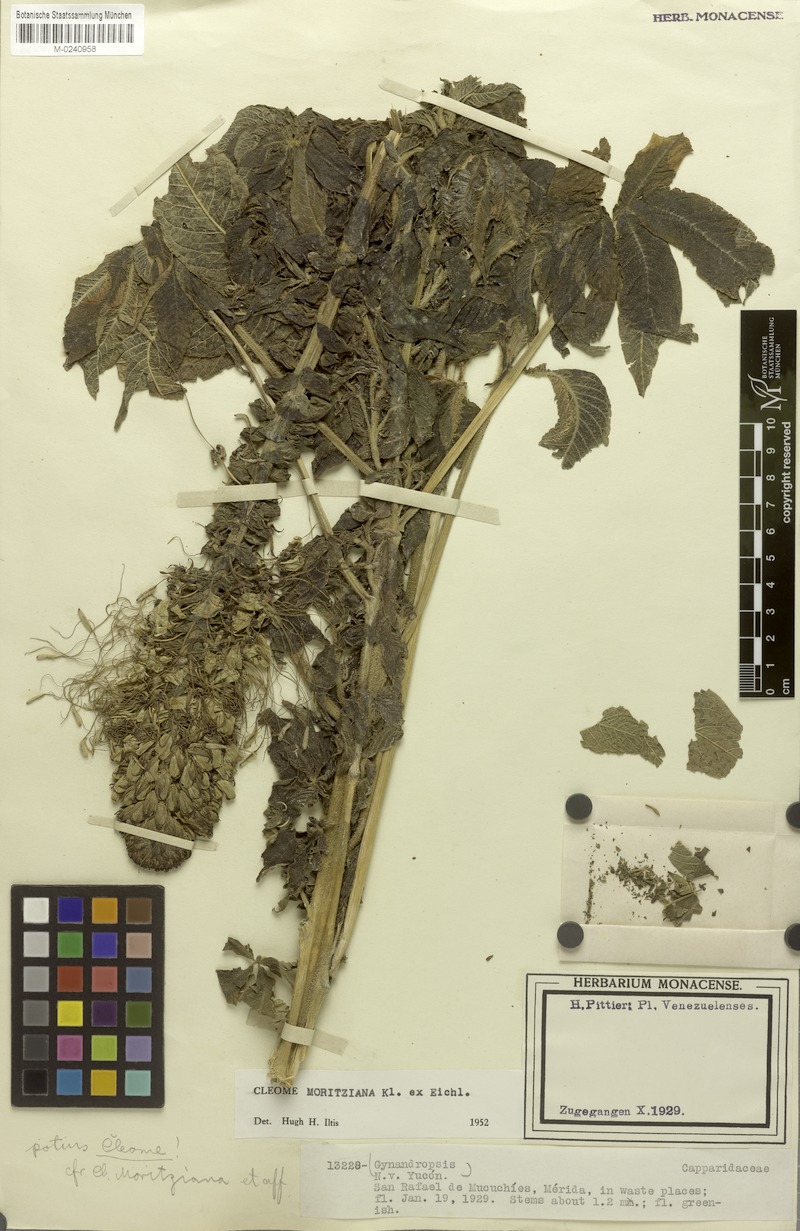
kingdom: Plantae
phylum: Tracheophyta
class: Magnoliopsida
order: Brassicales
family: Cleomaceae
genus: Andinocleome
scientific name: Andinocleome moritziana
